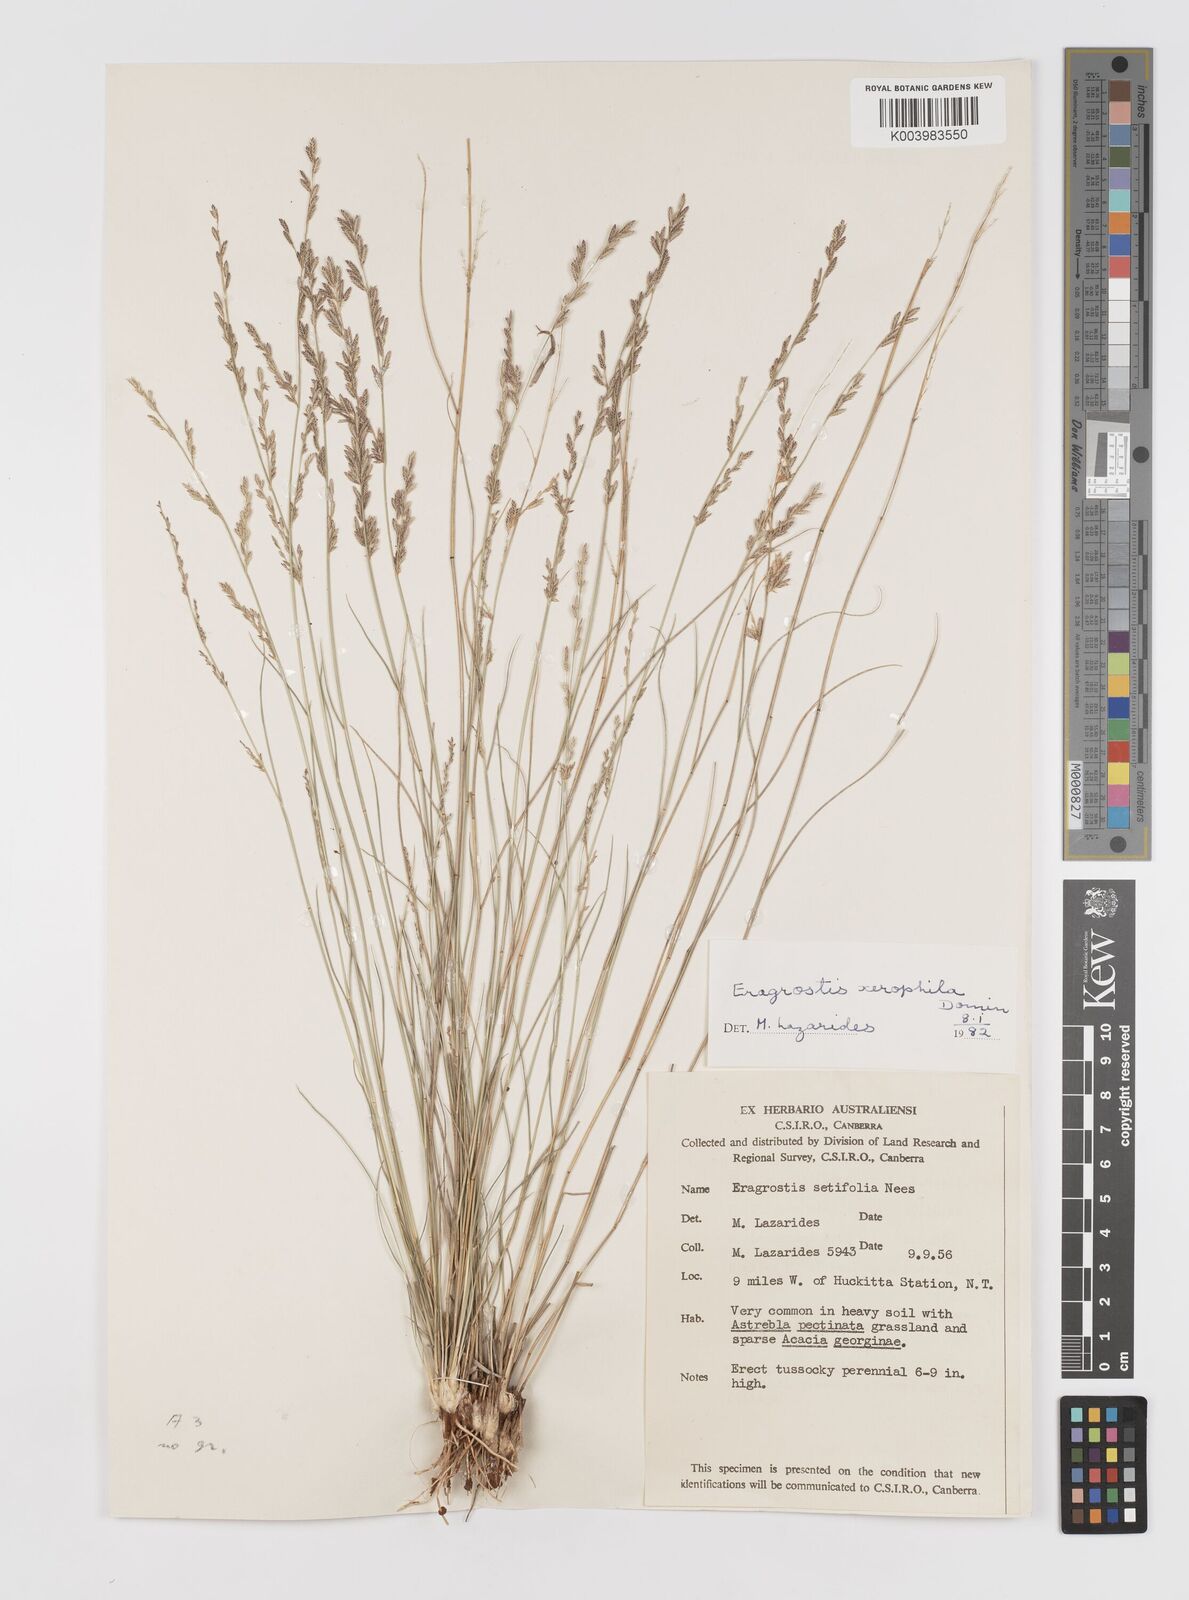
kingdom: Plantae
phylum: Tracheophyta
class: Liliopsida
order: Poales
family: Poaceae
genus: Eragrostis
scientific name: Eragrostis xerophila
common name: Wire wandarrie grass
